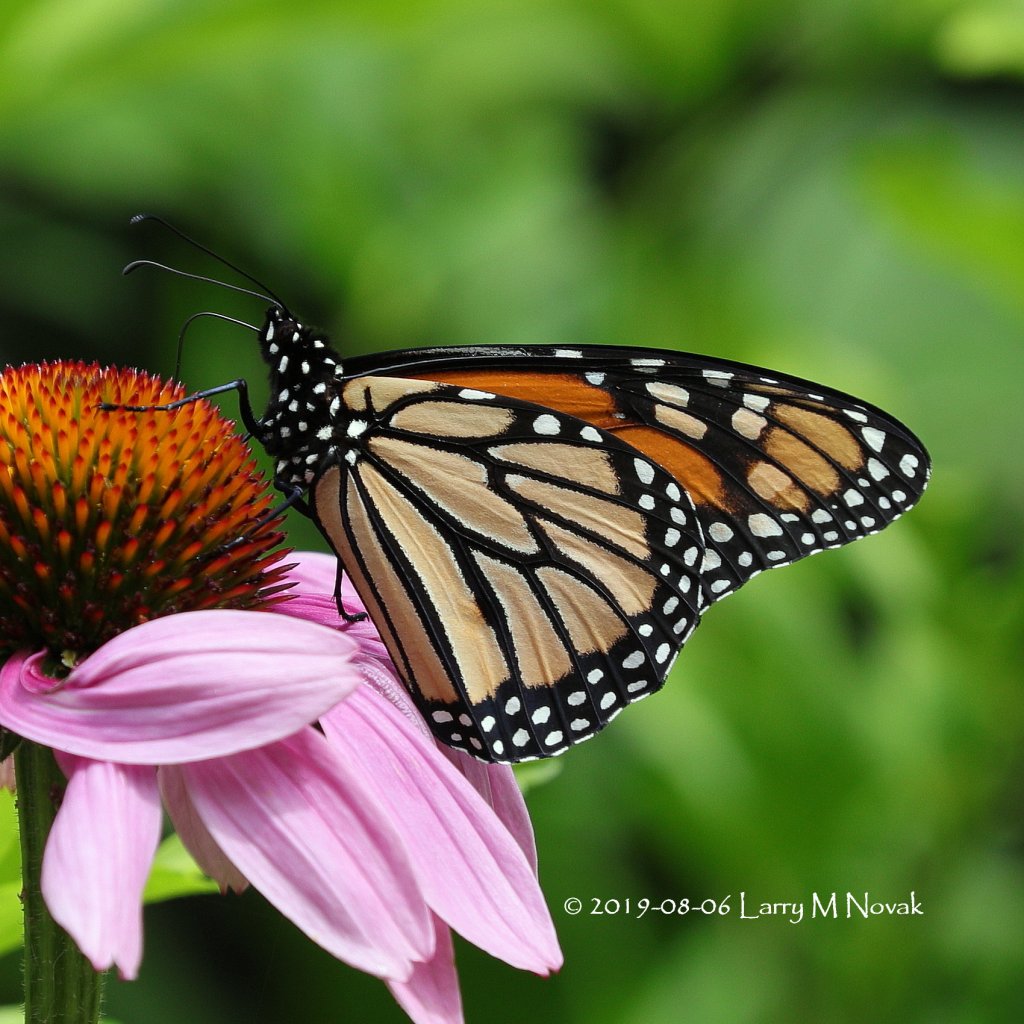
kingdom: Animalia
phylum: Arthropoda
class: Insecta
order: Lepidoptera
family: Nymphalidae
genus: Danaus
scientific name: Danaus plexippus
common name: Monarch
